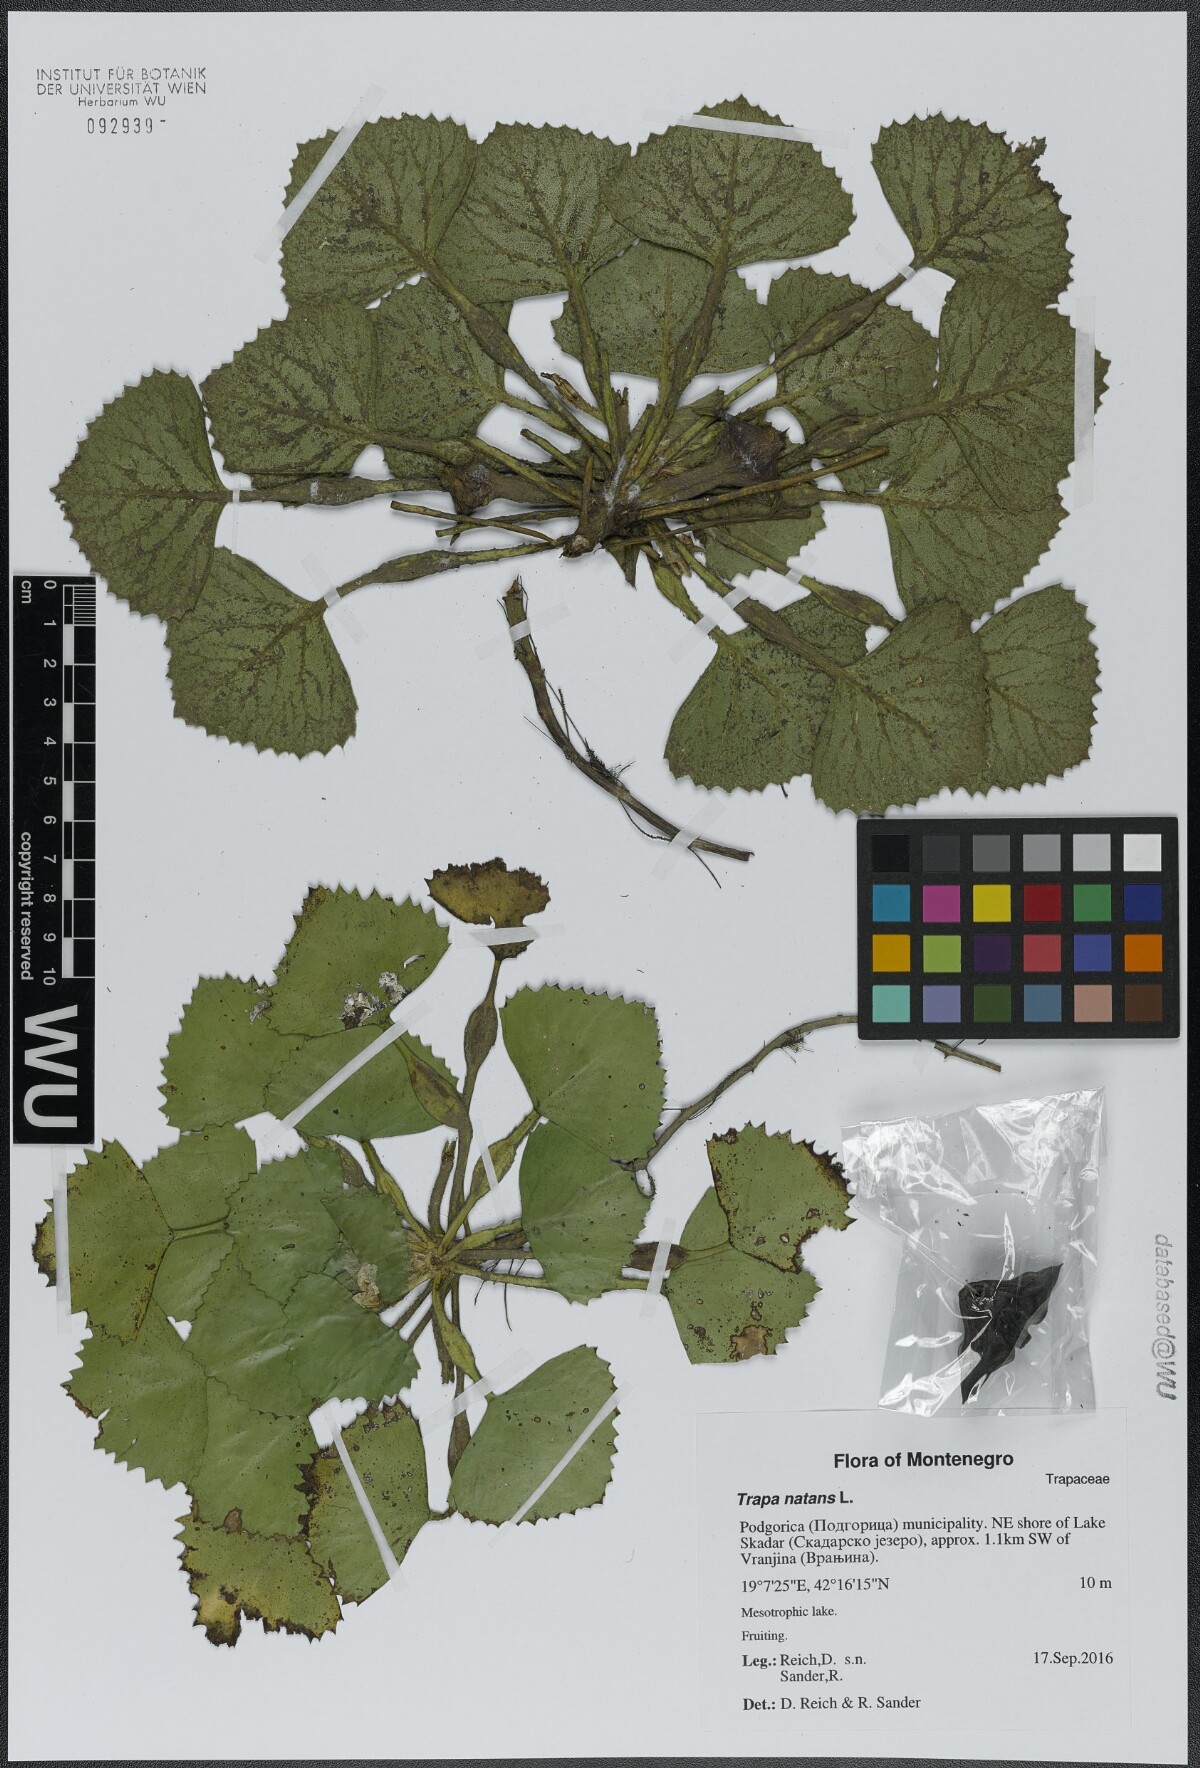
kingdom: Plantae
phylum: Tracheophyta
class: Magnoliopsida
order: Myrtales
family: Lythraceae
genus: Trapa
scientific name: Trapa natans
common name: Water chestnut
